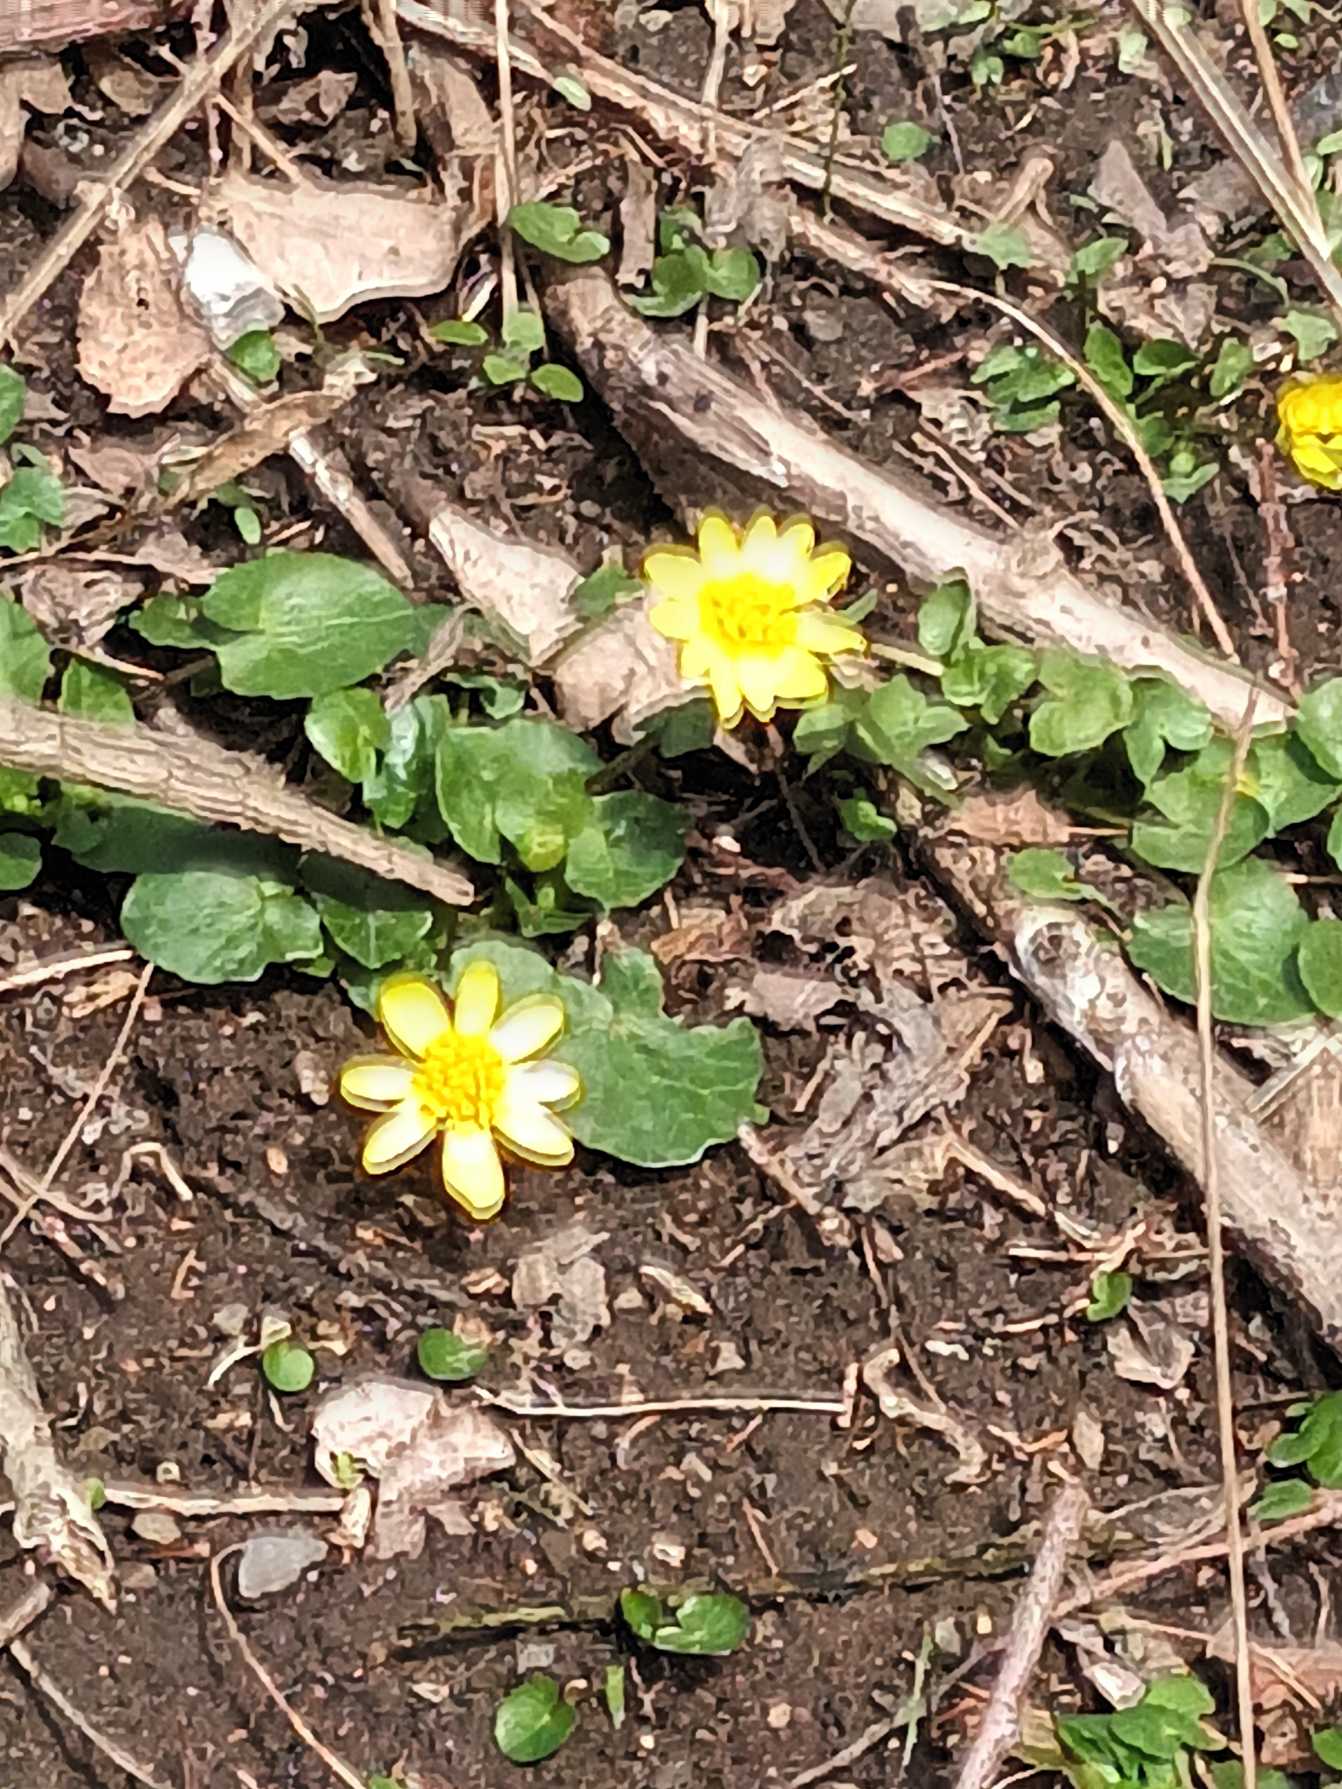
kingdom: Plantae
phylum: Tracheophyta
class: Magnoliopsida
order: Ranunculales
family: Ranunculaceae
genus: Ficaria
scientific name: Ficaria verna
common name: Vorterod
